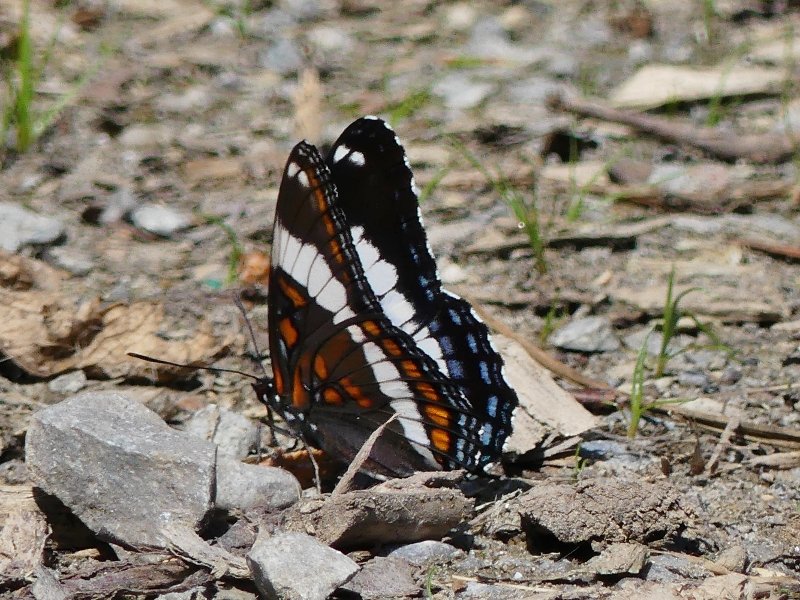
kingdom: Animalia
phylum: Arthropoda
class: Insecta
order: Lepidoptera
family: Nymphalidae
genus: Limenitis
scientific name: Limenitis arthemis
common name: Red-spotted Admiral
